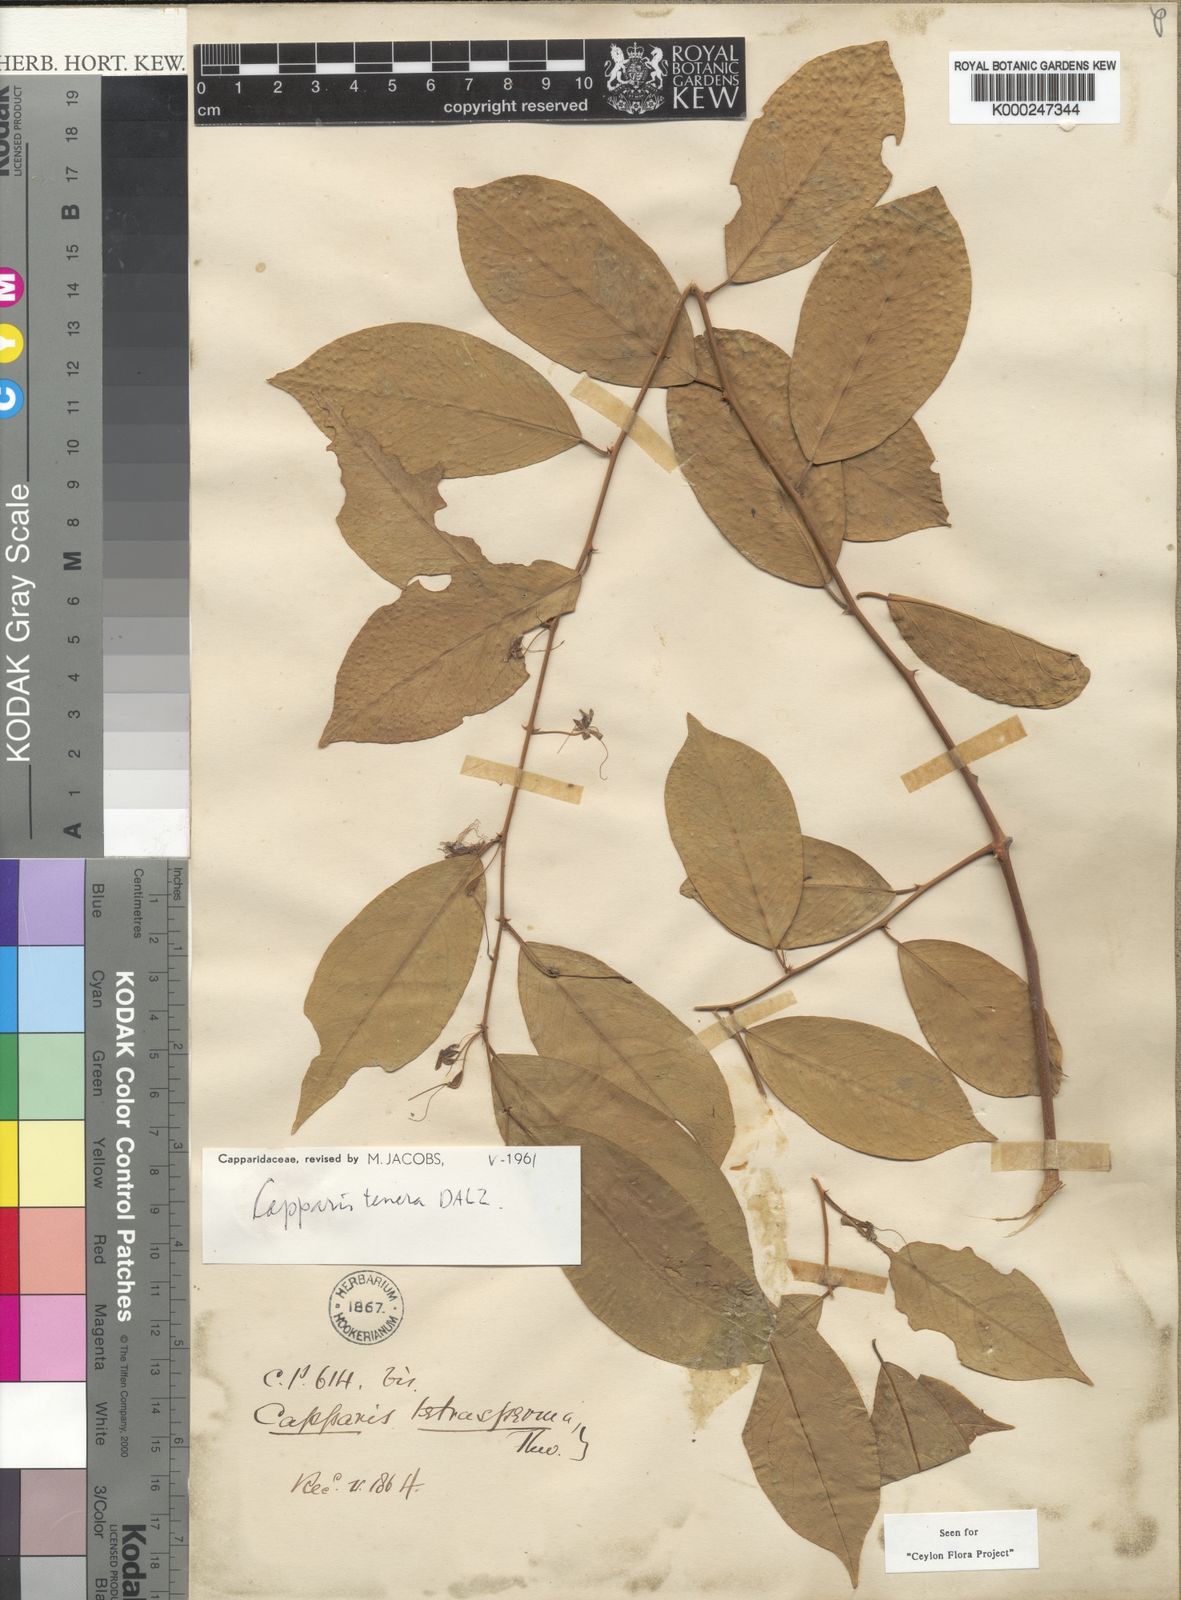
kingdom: Plantae
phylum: Tracheophyta
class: Magnoliopsida
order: Brassicales
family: Capparaceae
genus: Capparis
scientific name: Capparis tenera
